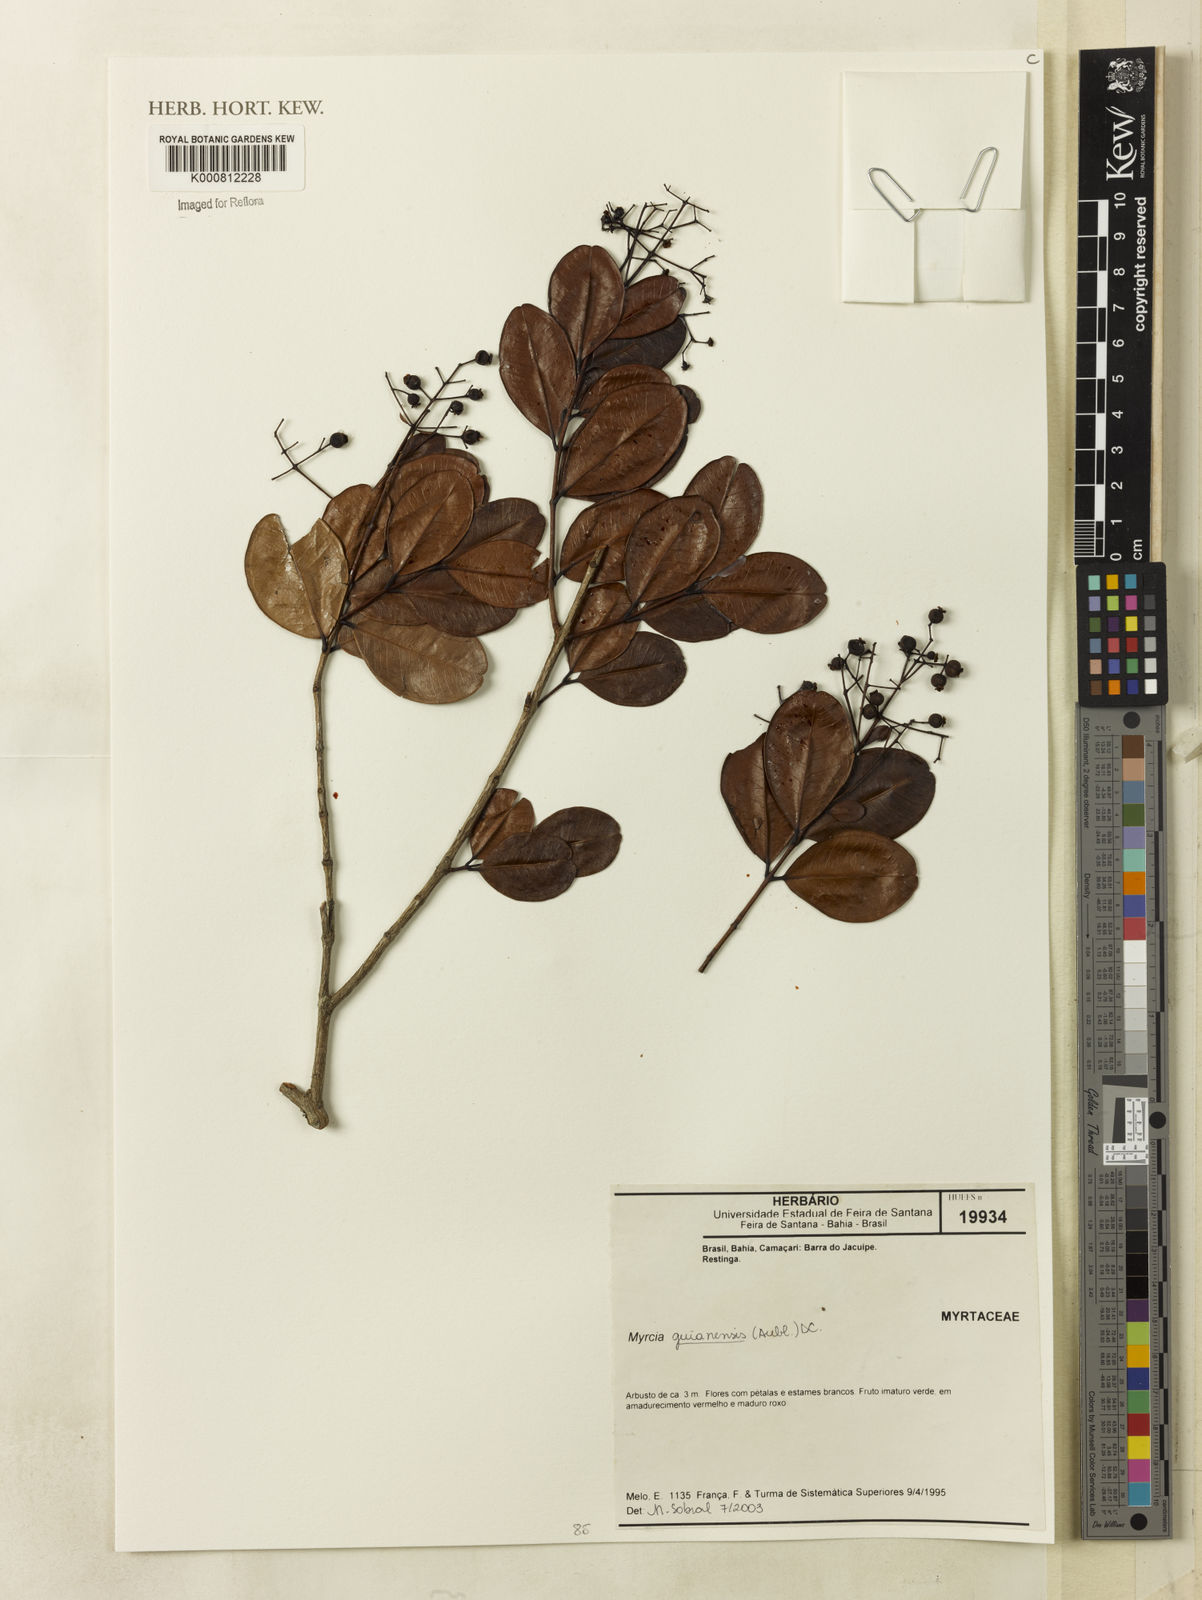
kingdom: Plantae
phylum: Tracheophyta
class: Magnoliopsida
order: Myrtales
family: Myrtaceae
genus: Myrcia
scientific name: Myrcia guianensis
